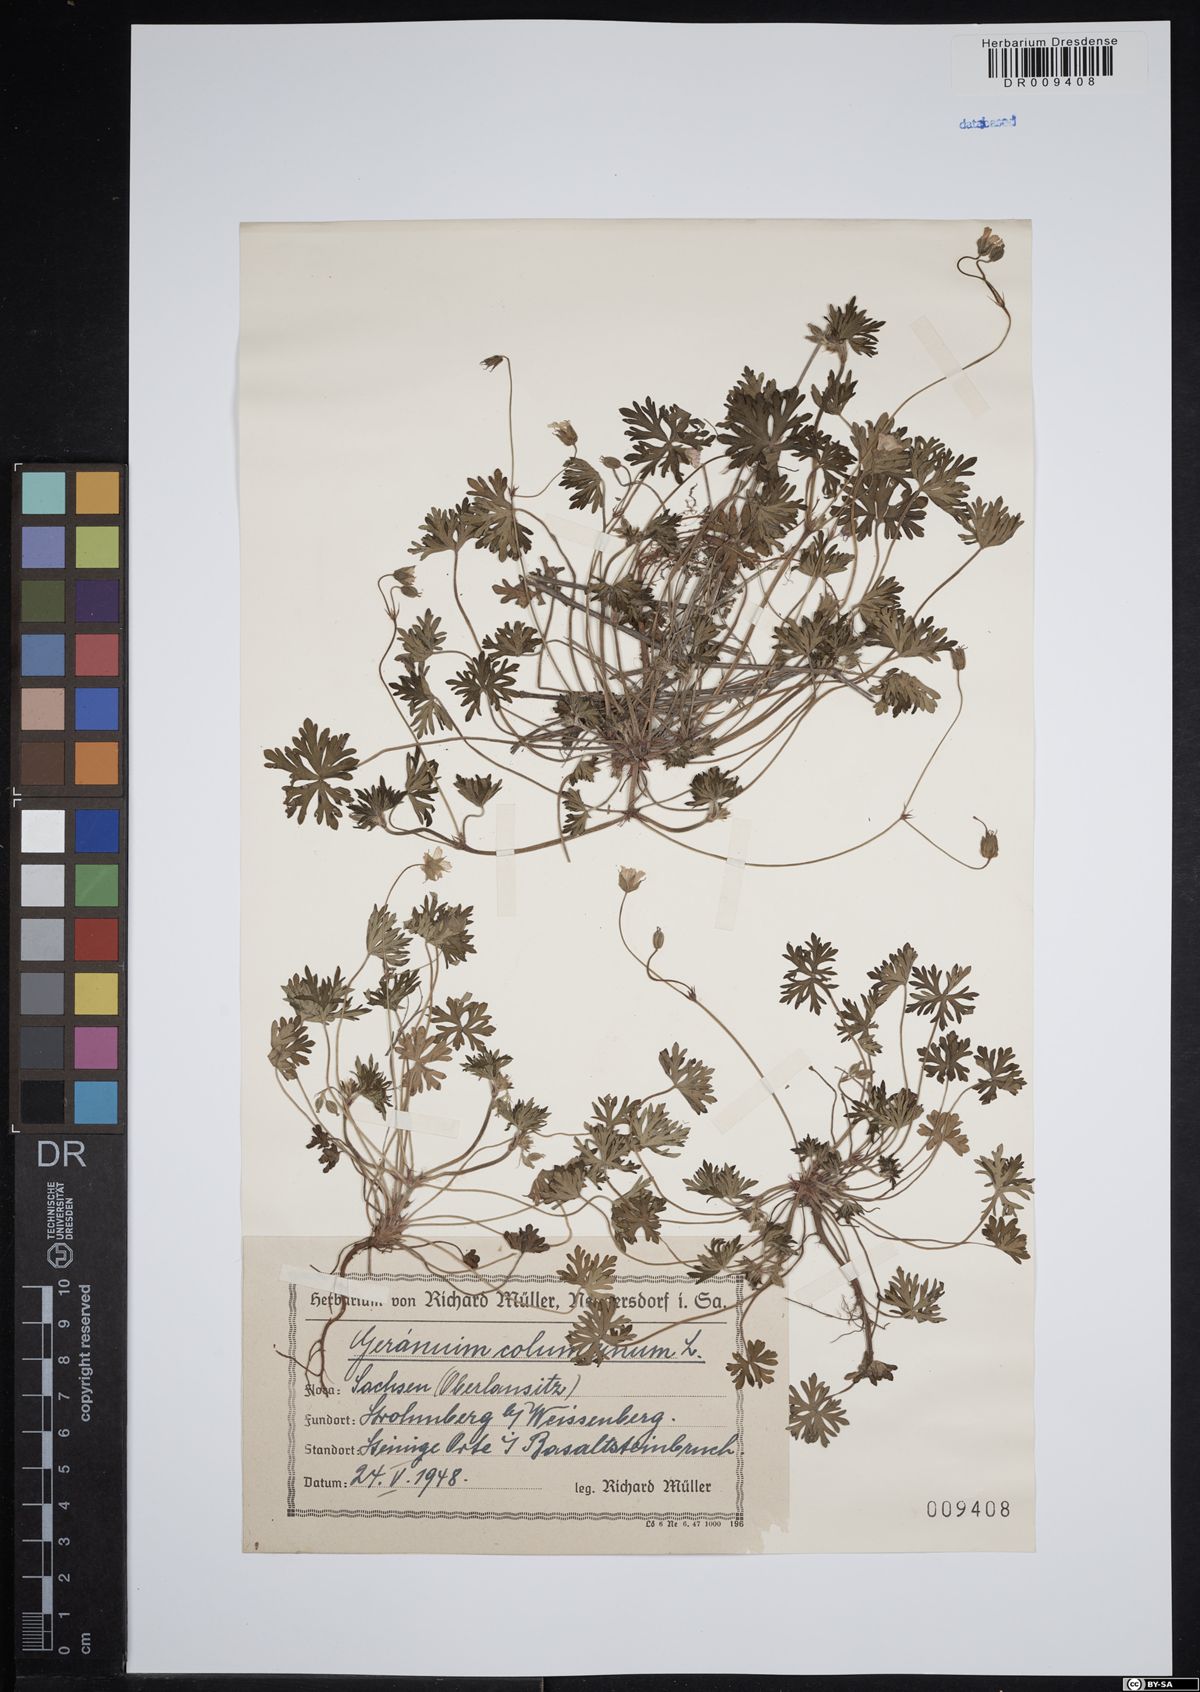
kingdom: Plantae
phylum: Tracheophyta
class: Magnoliopsida
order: Geraniales
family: Geraniaceae
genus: Geranium
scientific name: Geranium columbinum
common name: Long-stalked crane's-bill
